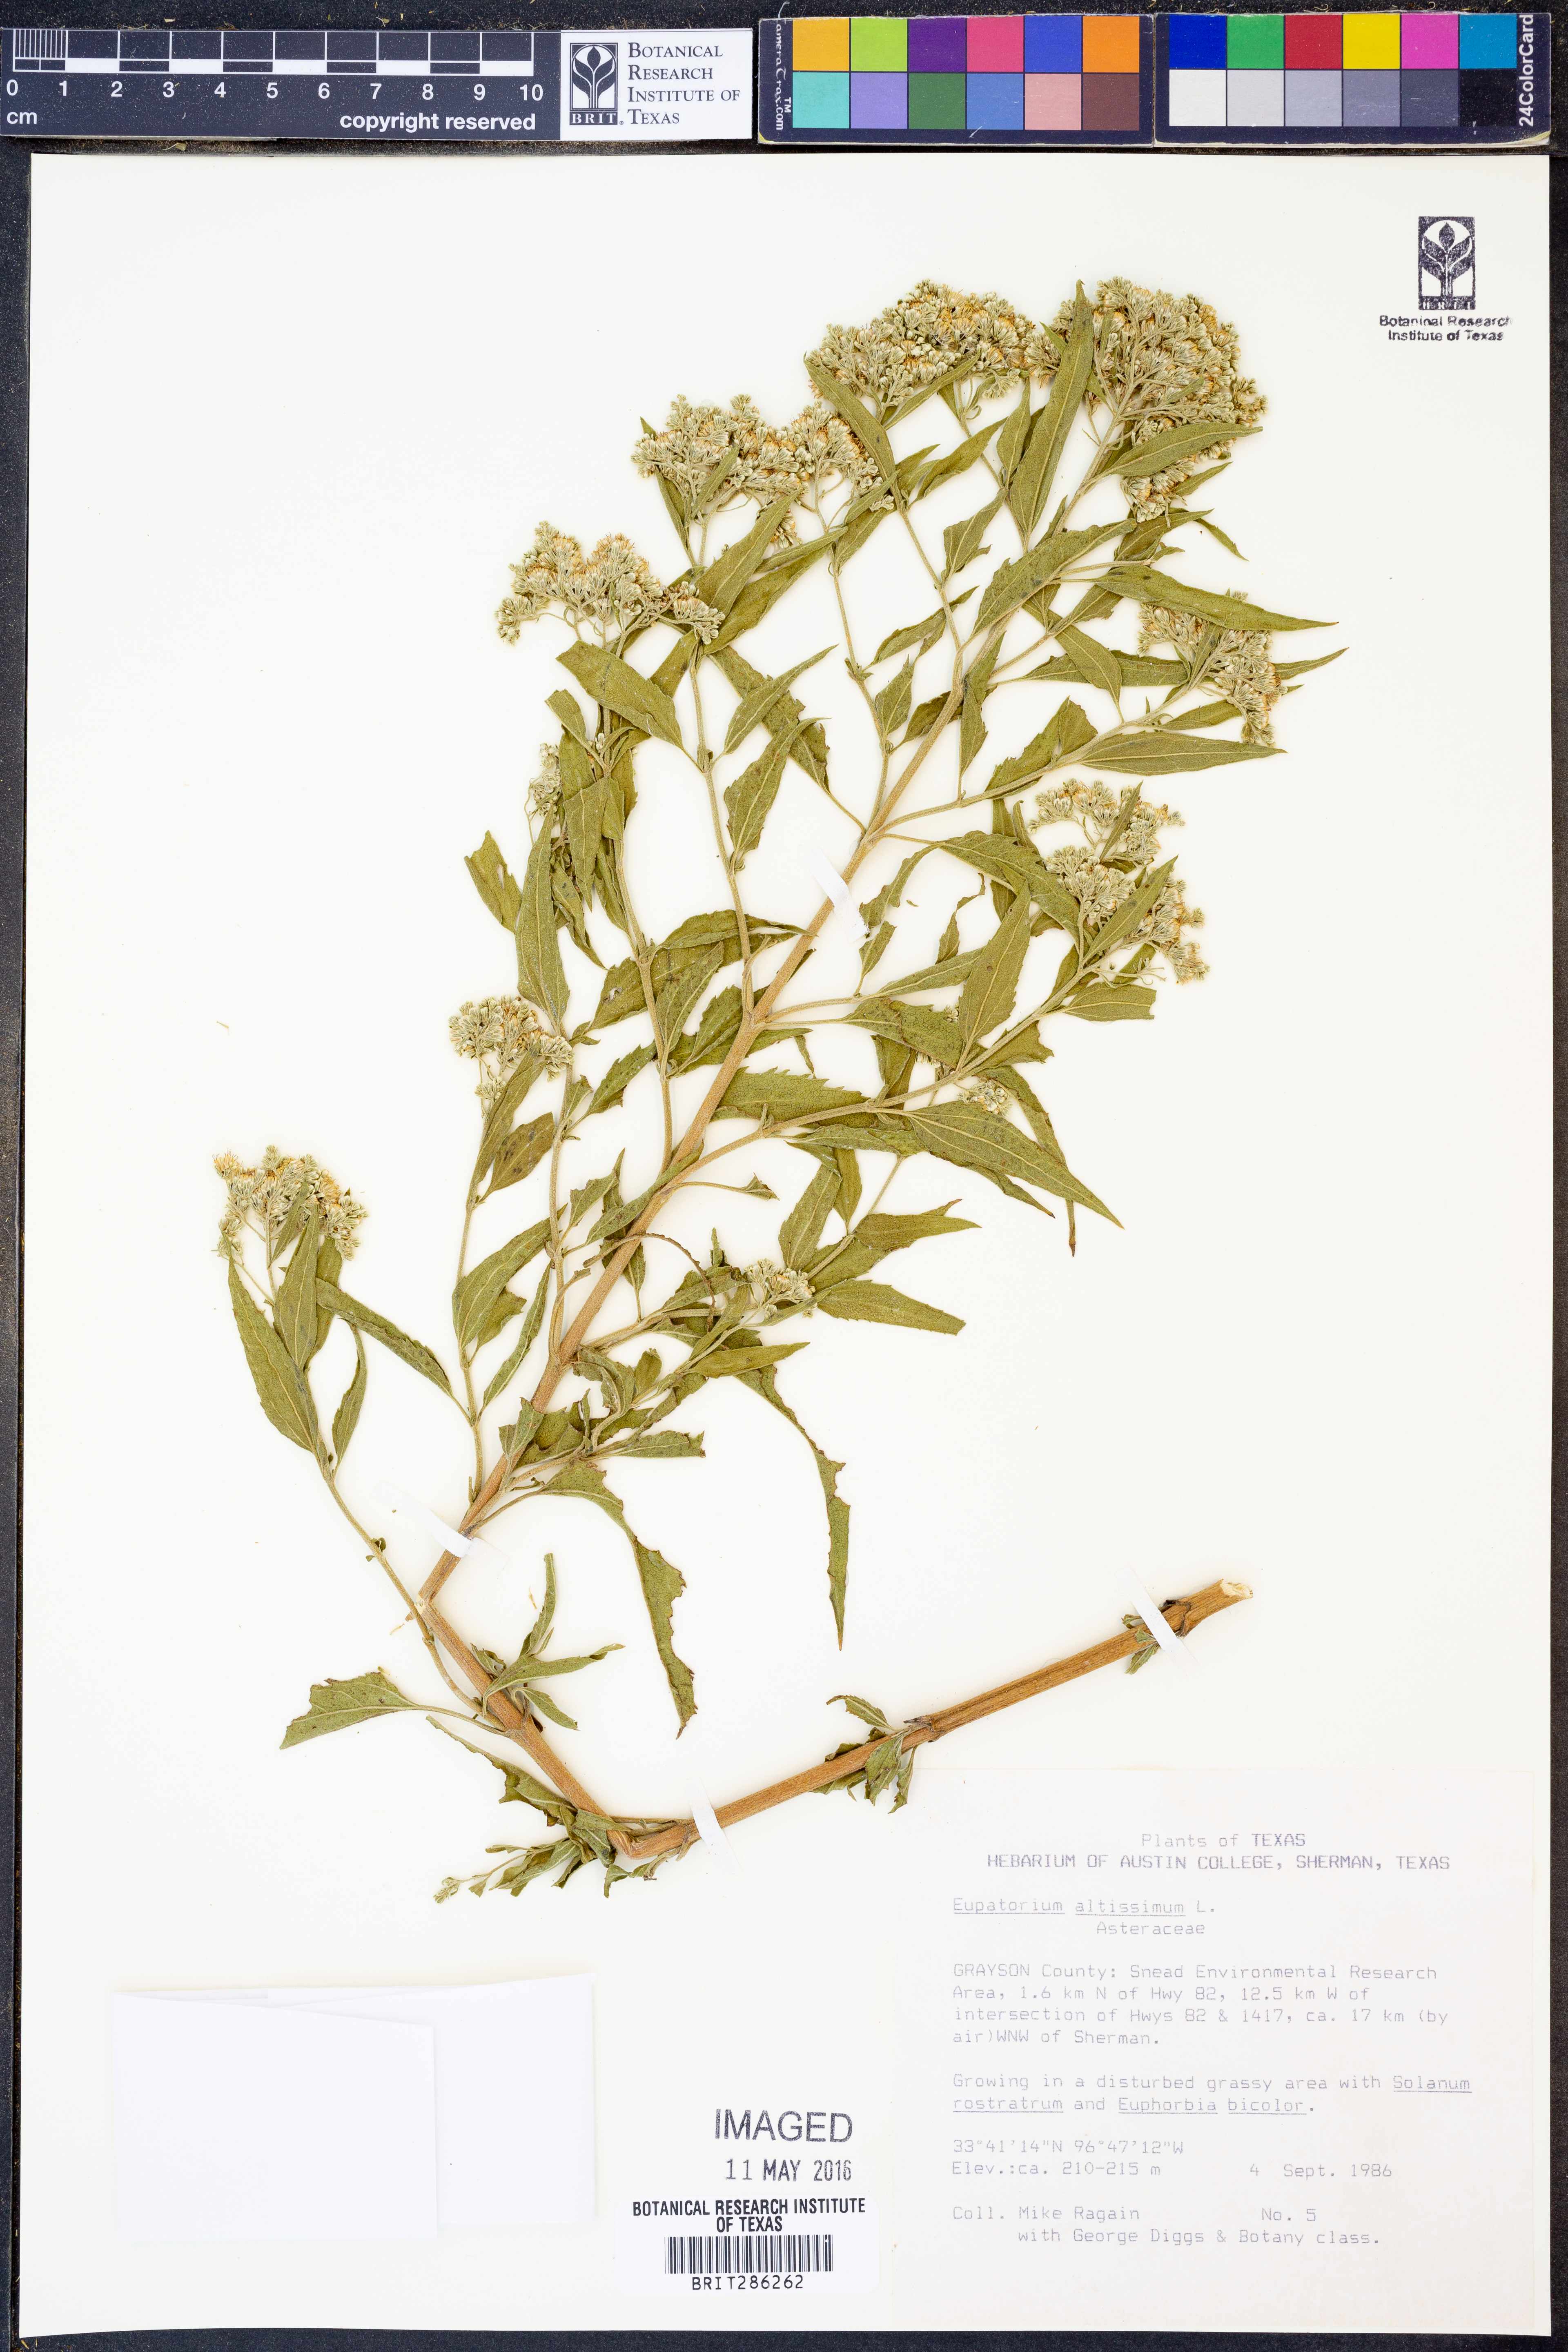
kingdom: Plantae
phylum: Tracheophyta
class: Magnoliopsida
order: Asterales
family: Asteraceae
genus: Eupatorium
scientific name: Eupatorium altissimum
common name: Tall thoroughwort
